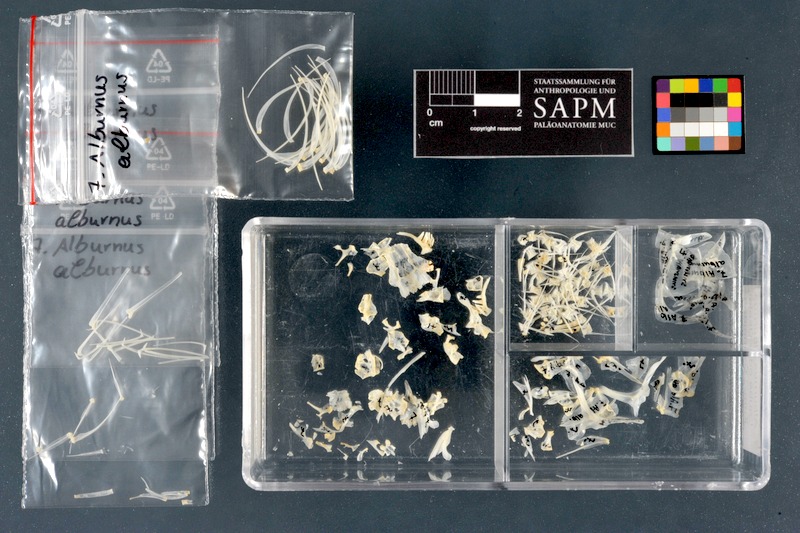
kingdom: Animalia
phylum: Chordata
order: Cypriniformes
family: Cyprinidae
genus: Alburnus
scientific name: Alburnus alburnus
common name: Bleak
